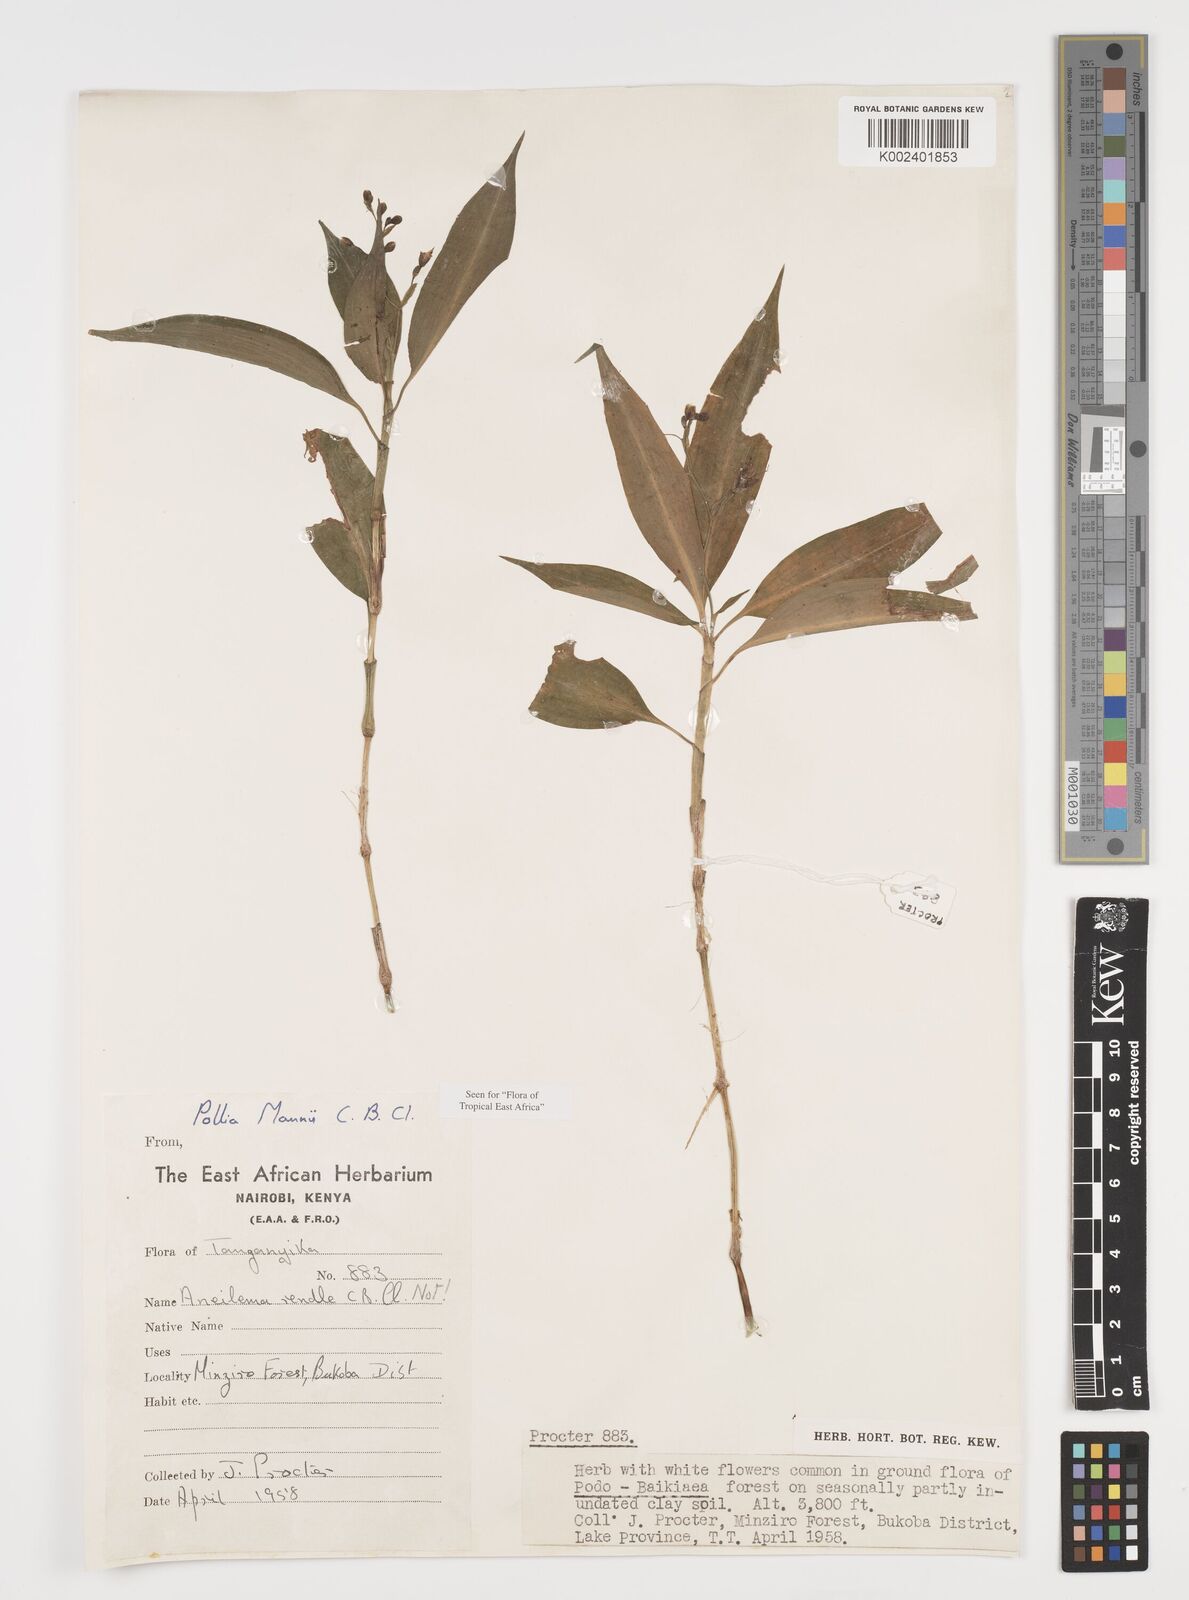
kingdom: Plantae
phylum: Tracheophyta
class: Liliopsida
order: Commelinales
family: Commelinaceae
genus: Pollia
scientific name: Pollia mannii
